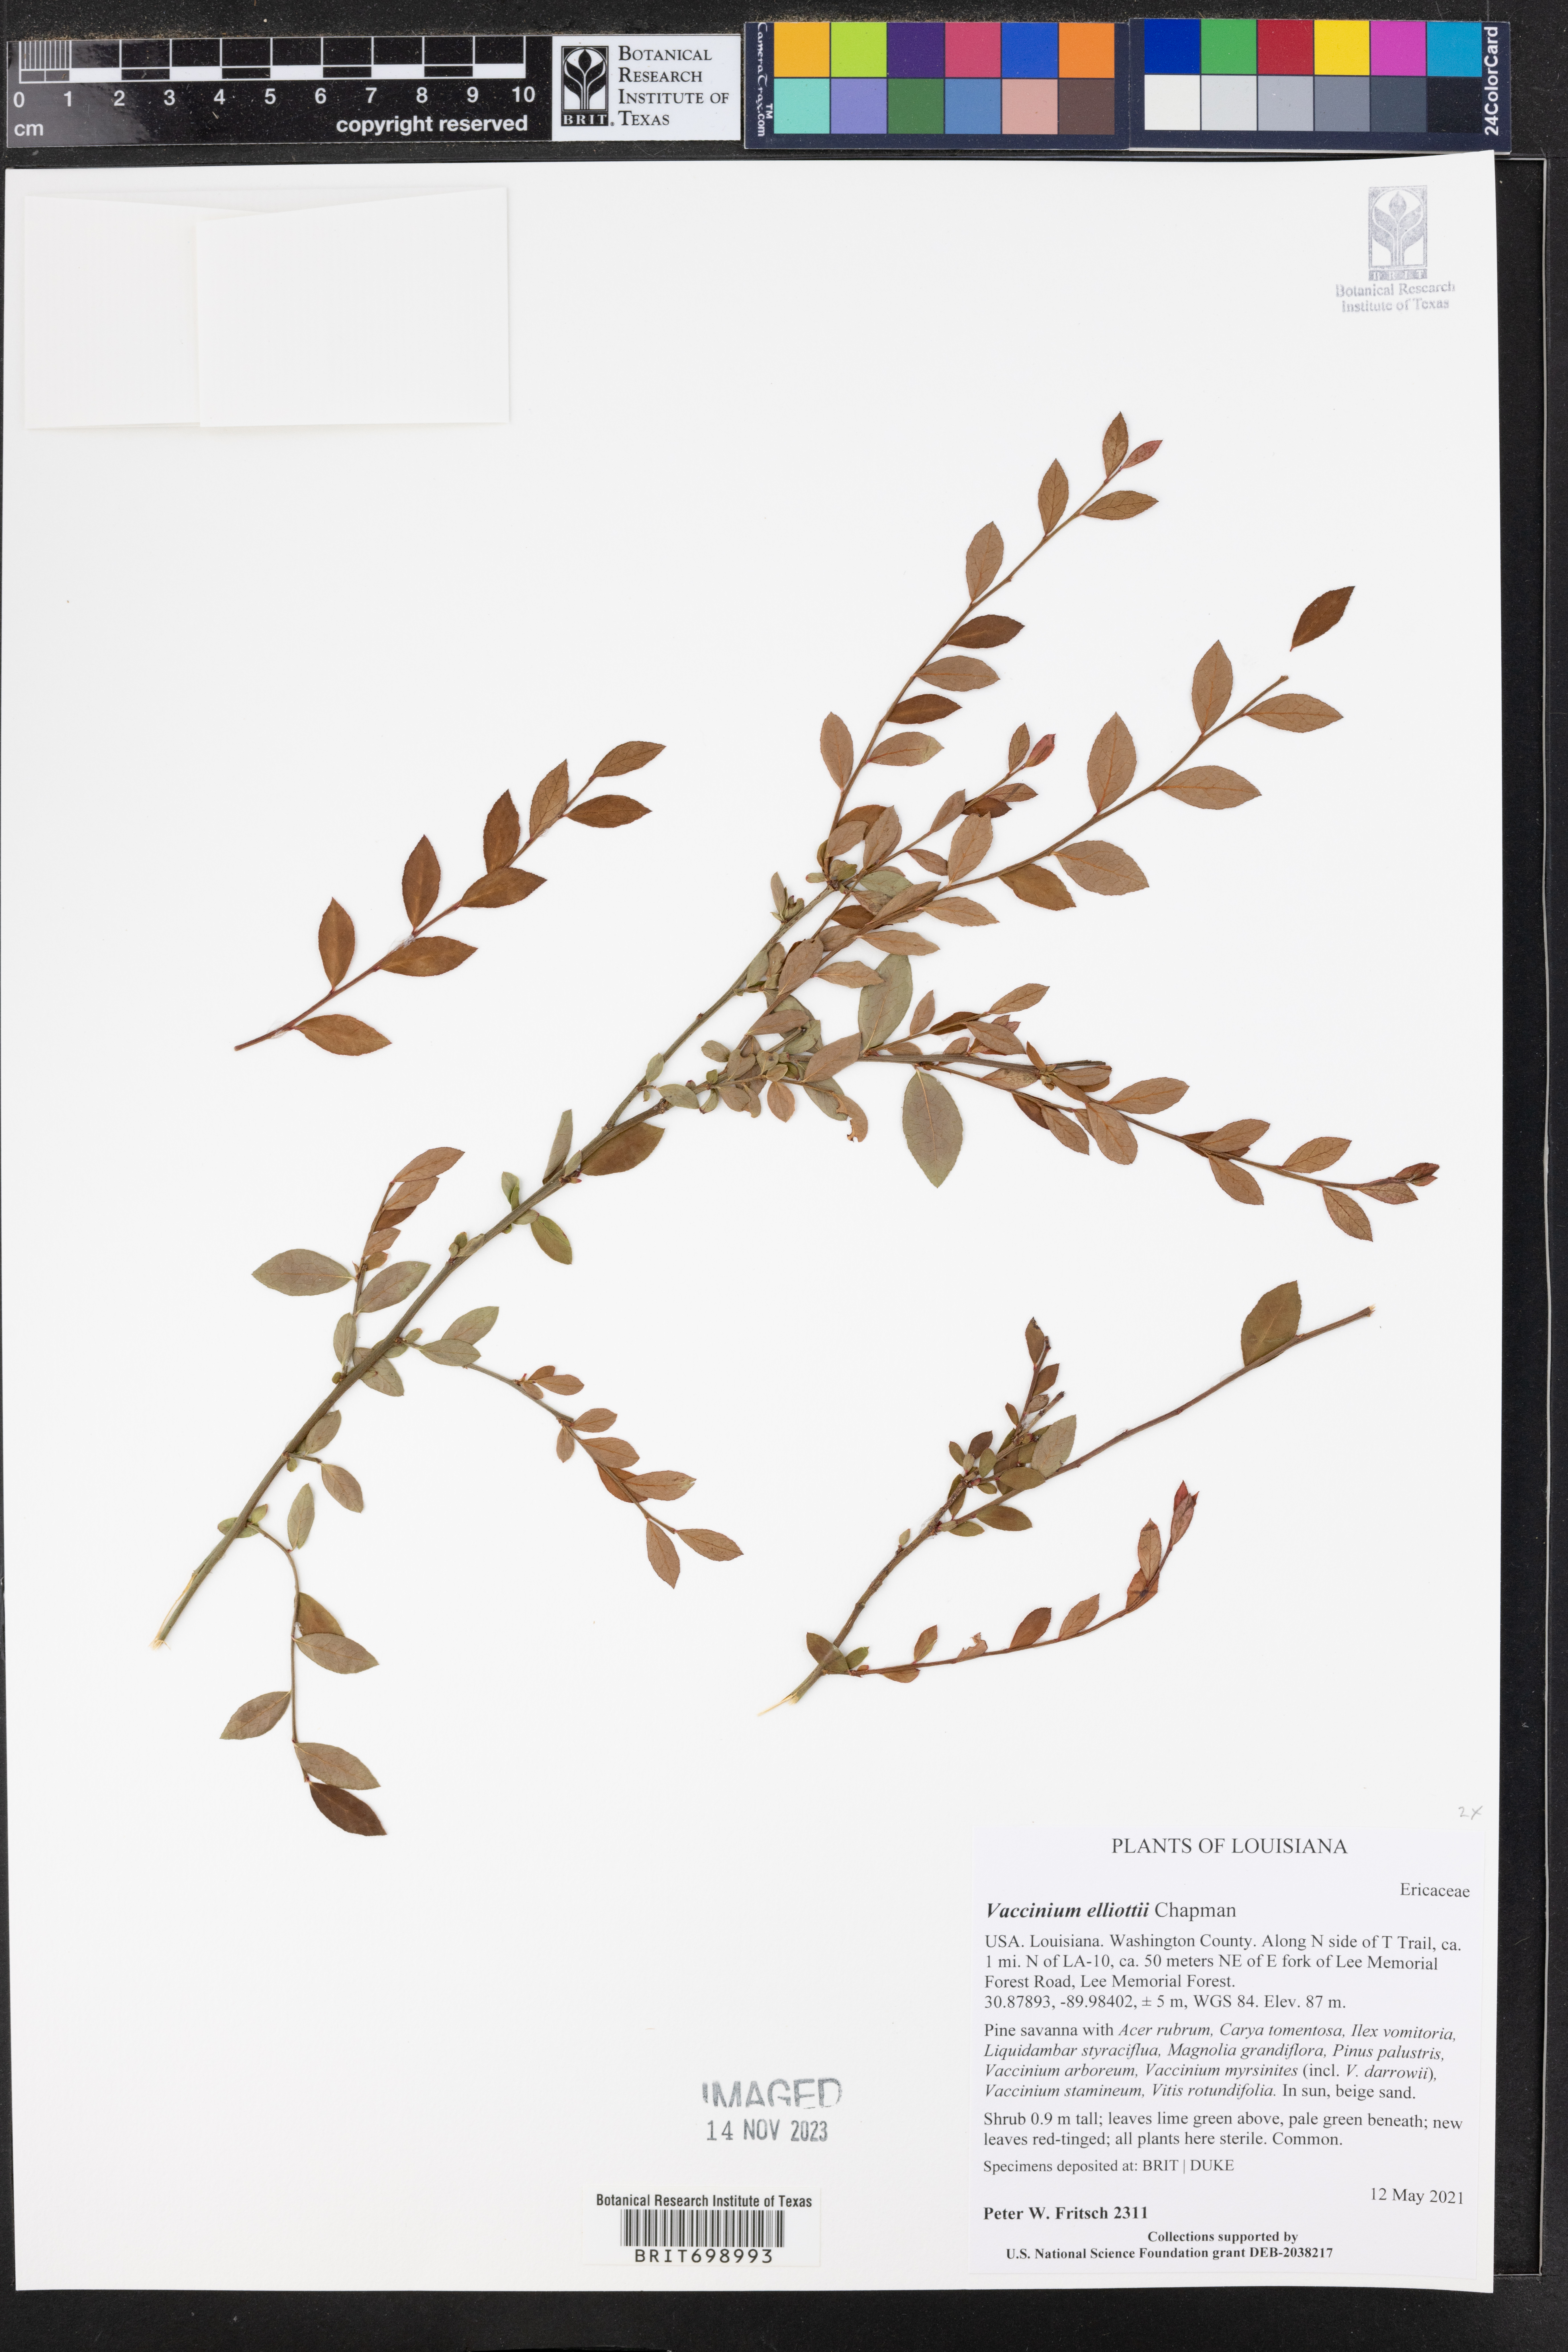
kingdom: Plantae
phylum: Tracheophyta
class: Magnoliopsida
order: Ericales
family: Ericaceae
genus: Vaccinium
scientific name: Vaccinium corymbosum
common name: Blueberry
